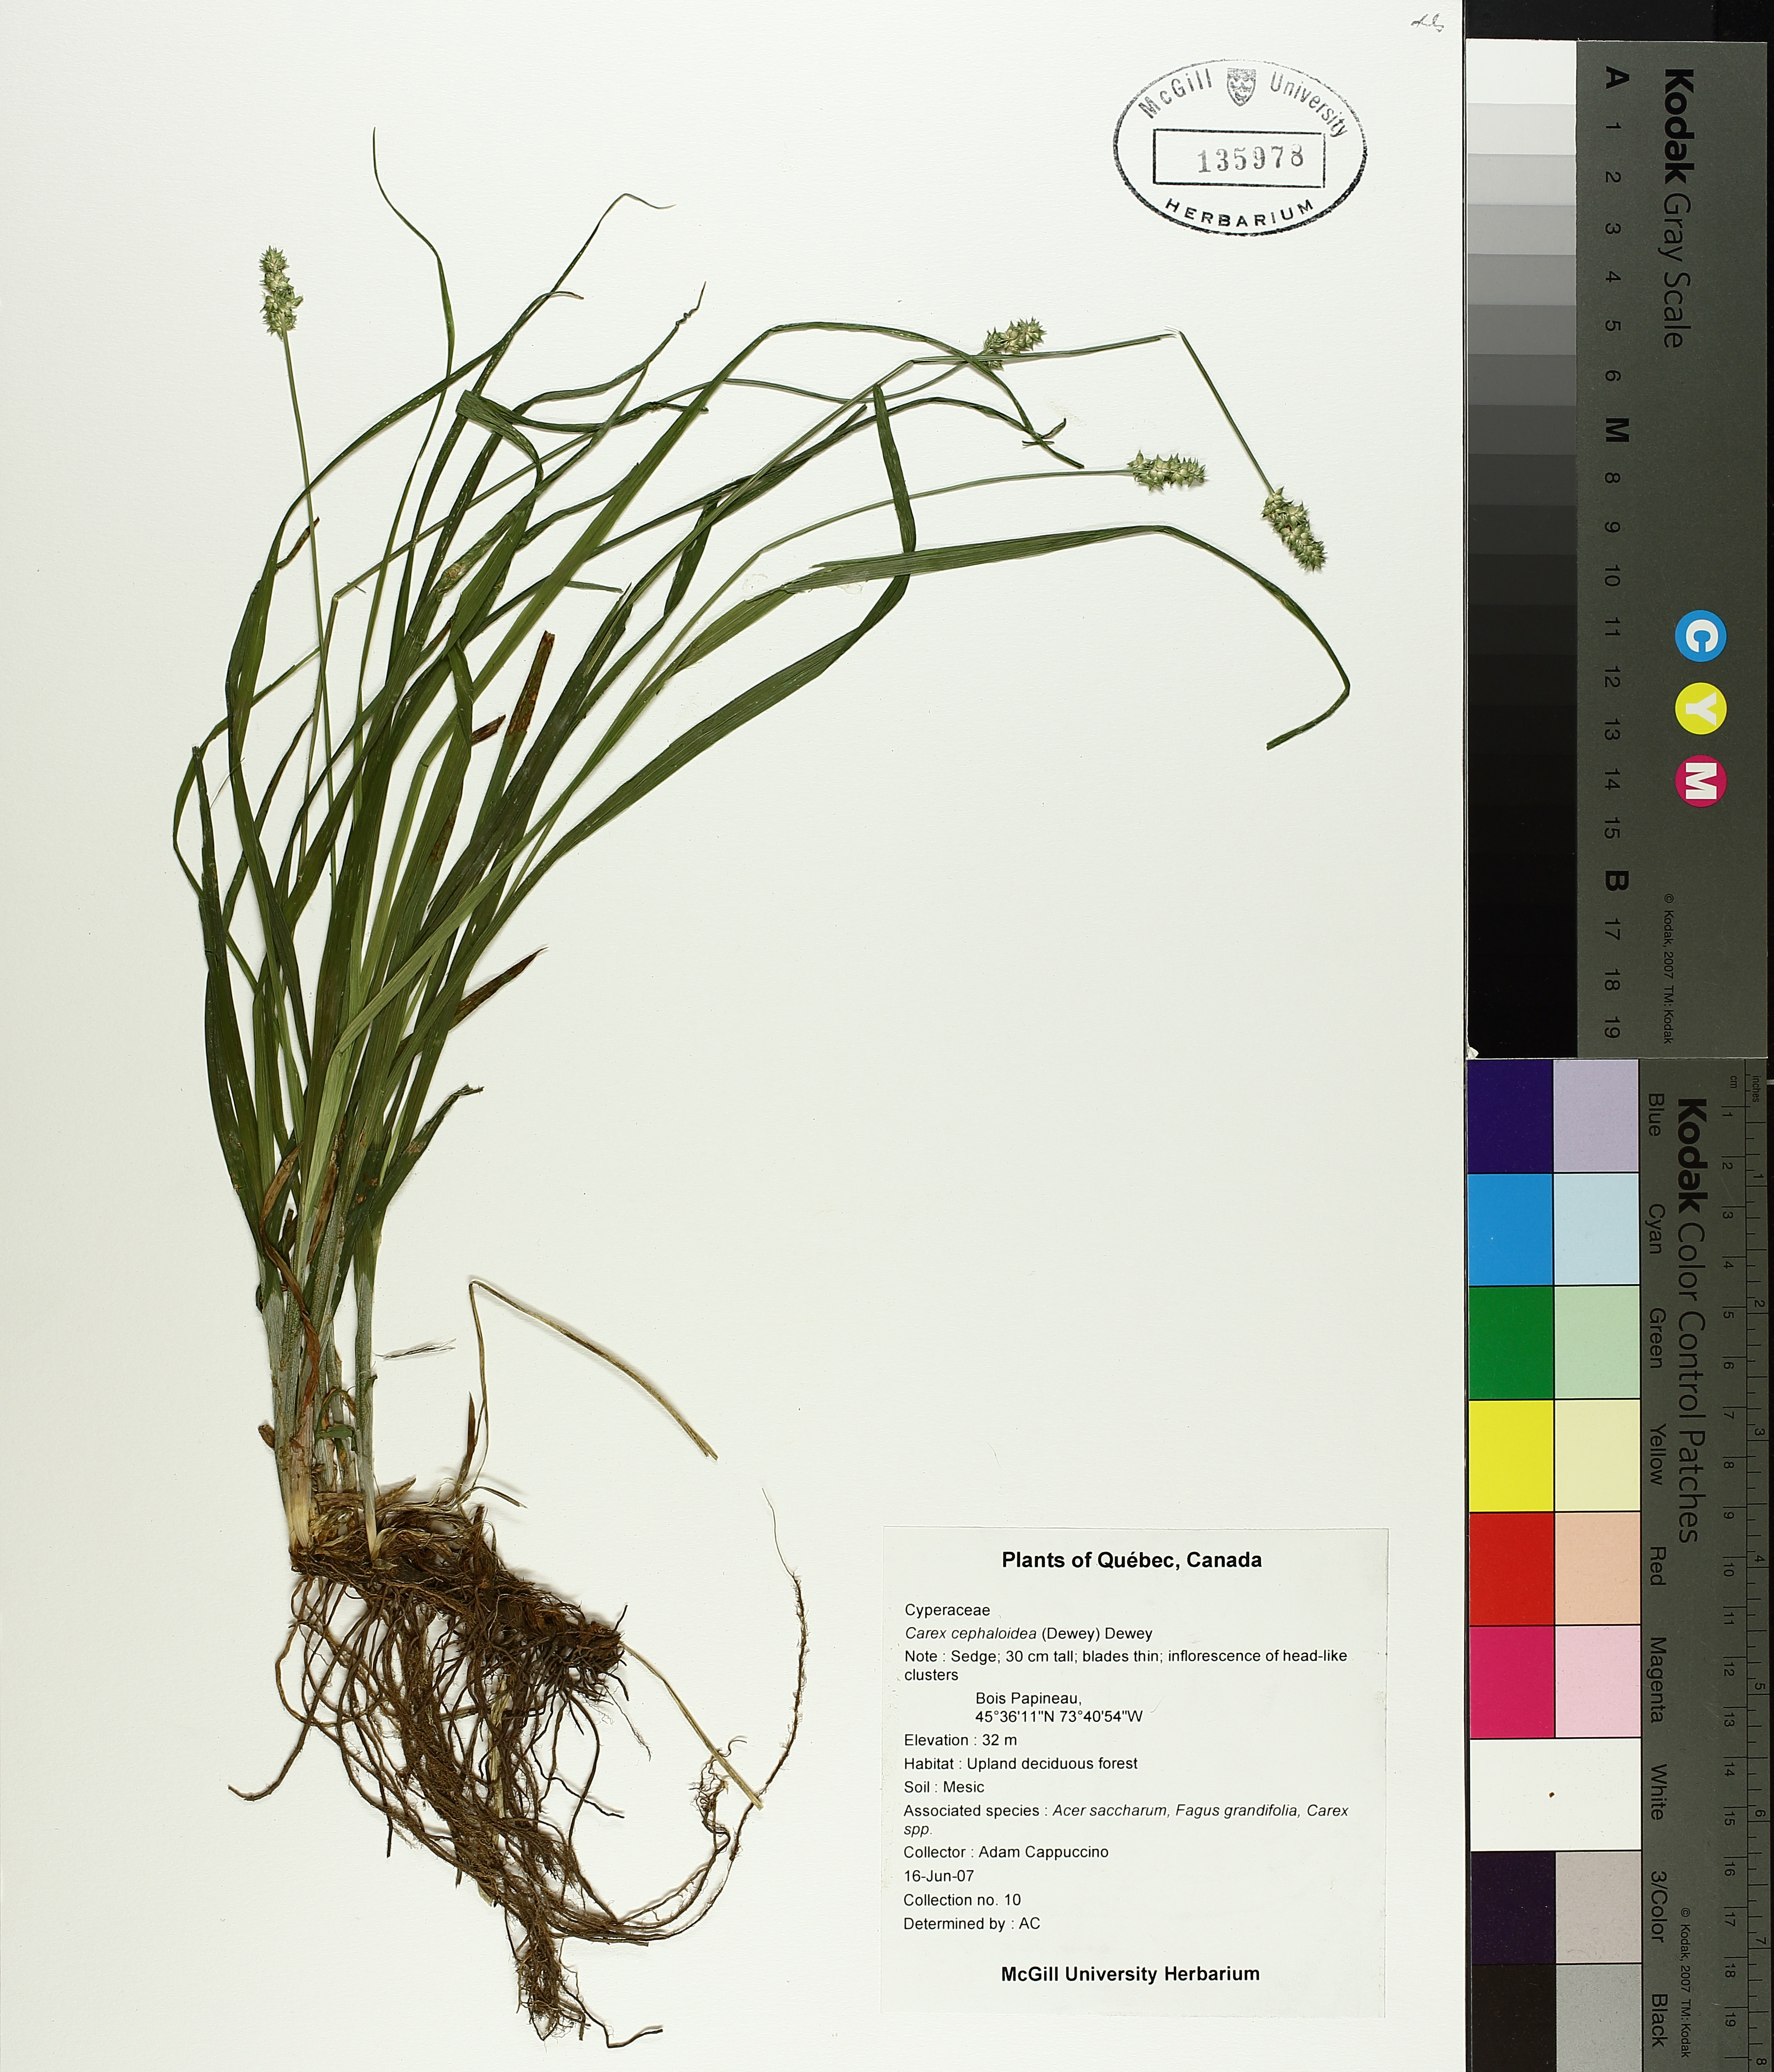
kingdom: Plantae
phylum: Tracheophyta
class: Liliopsida
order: Poales
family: Cyperaceae
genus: Carex
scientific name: Carex cephaloidea
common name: Thin-leaved sedge
